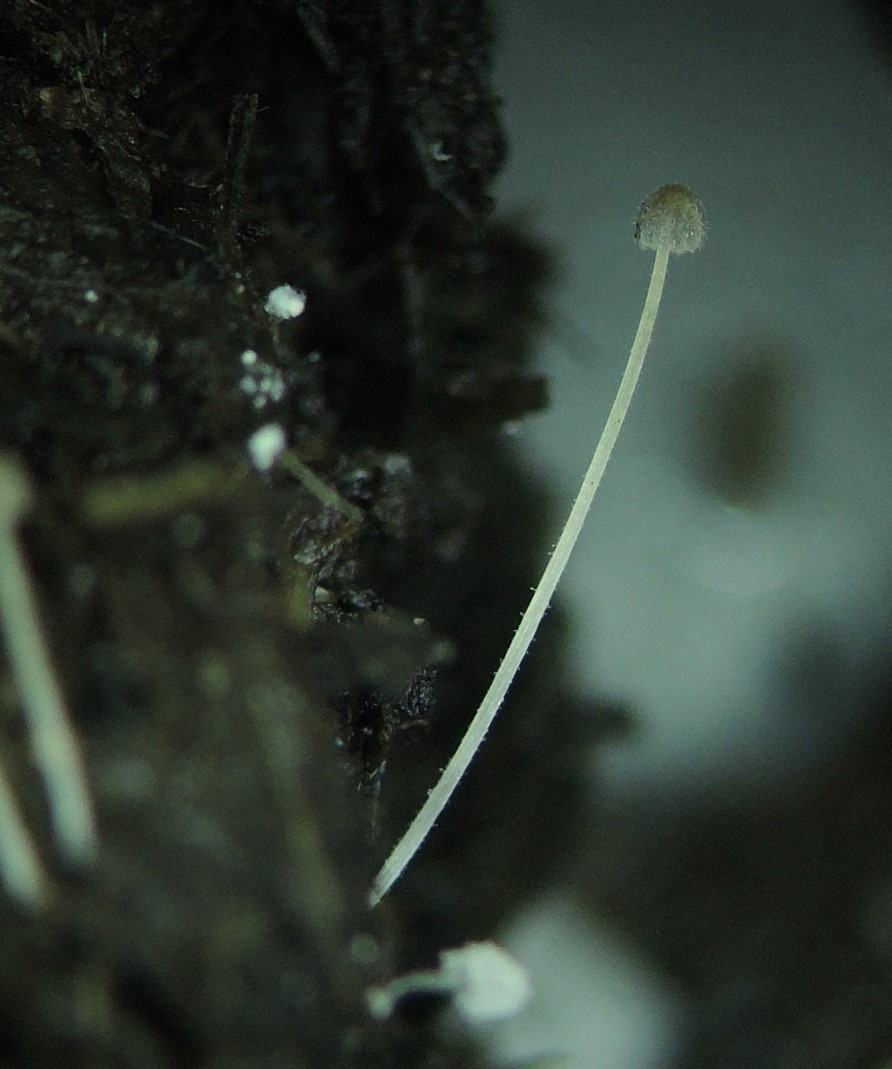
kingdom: Fungi
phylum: Basidiomycota
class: Agaricomycetes
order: Agaricales
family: Psathyrellaceae
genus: Tulosesus
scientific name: Tulosesus heterosetulosus
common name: forskellighåret blækhat
